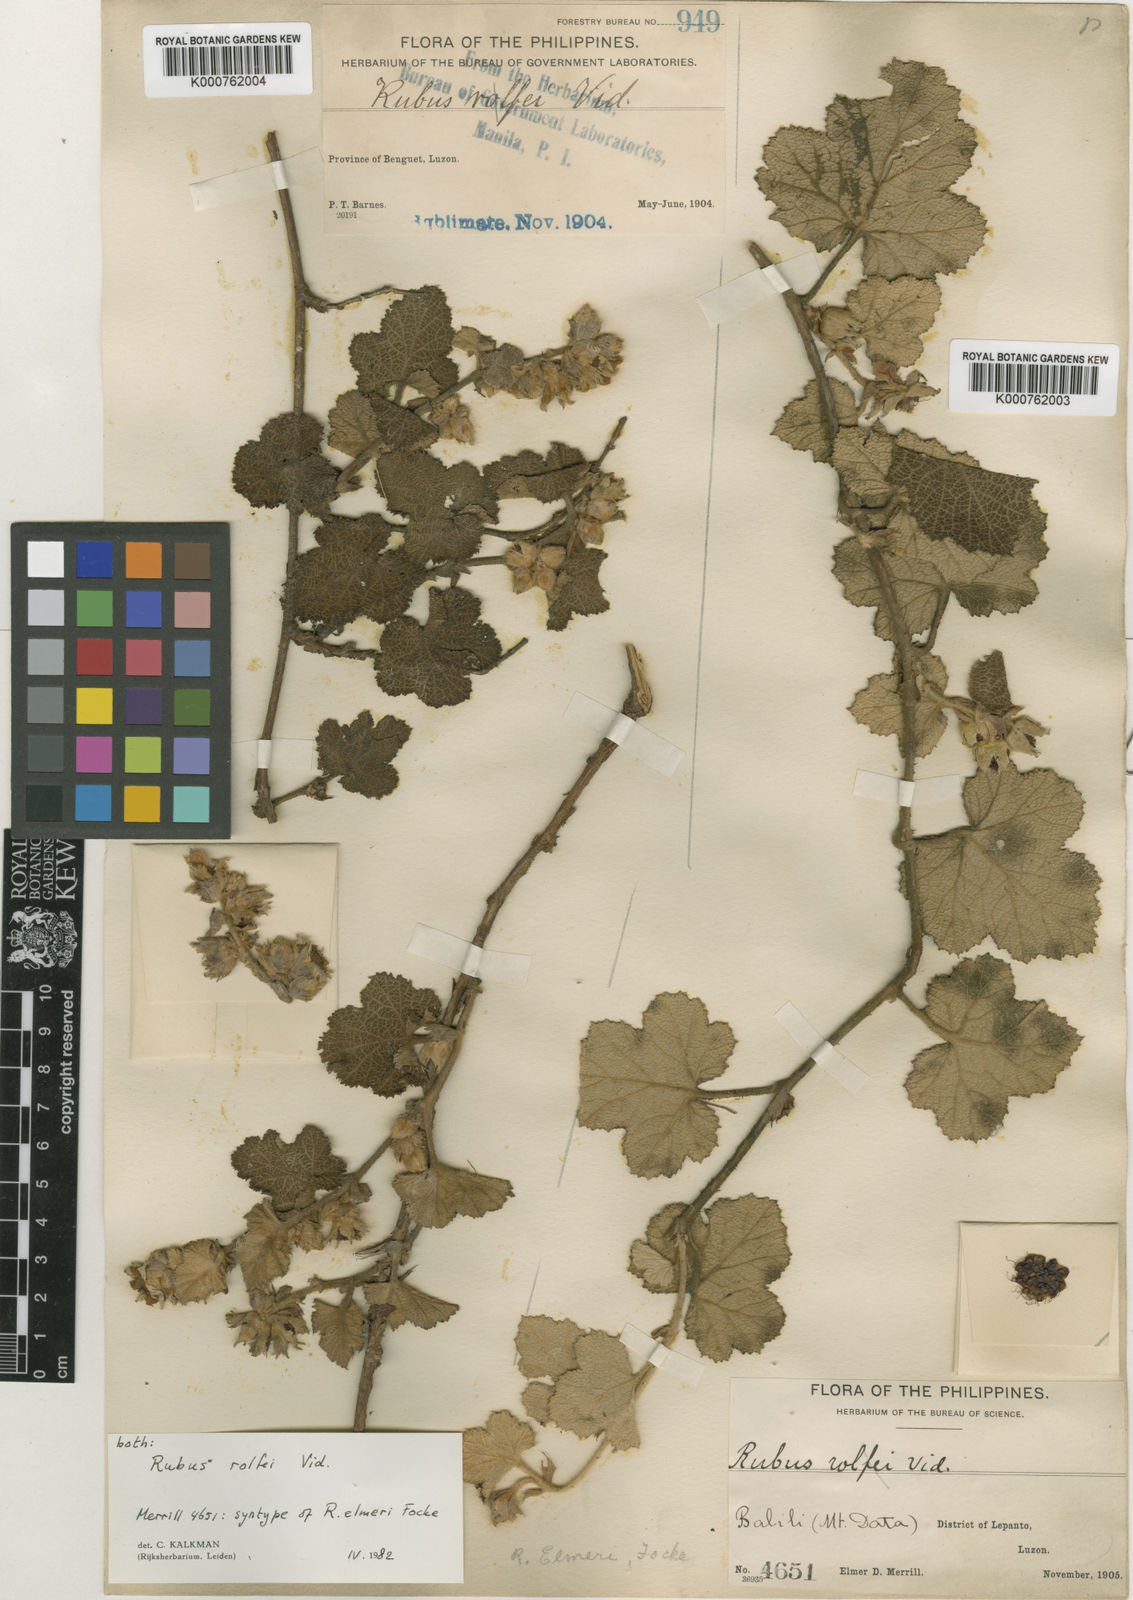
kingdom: Plantae
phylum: Tracheophyta
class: Magnoliopsida
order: Rosales
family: Rosaceae
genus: Rubus
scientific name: Rubus rolfei
